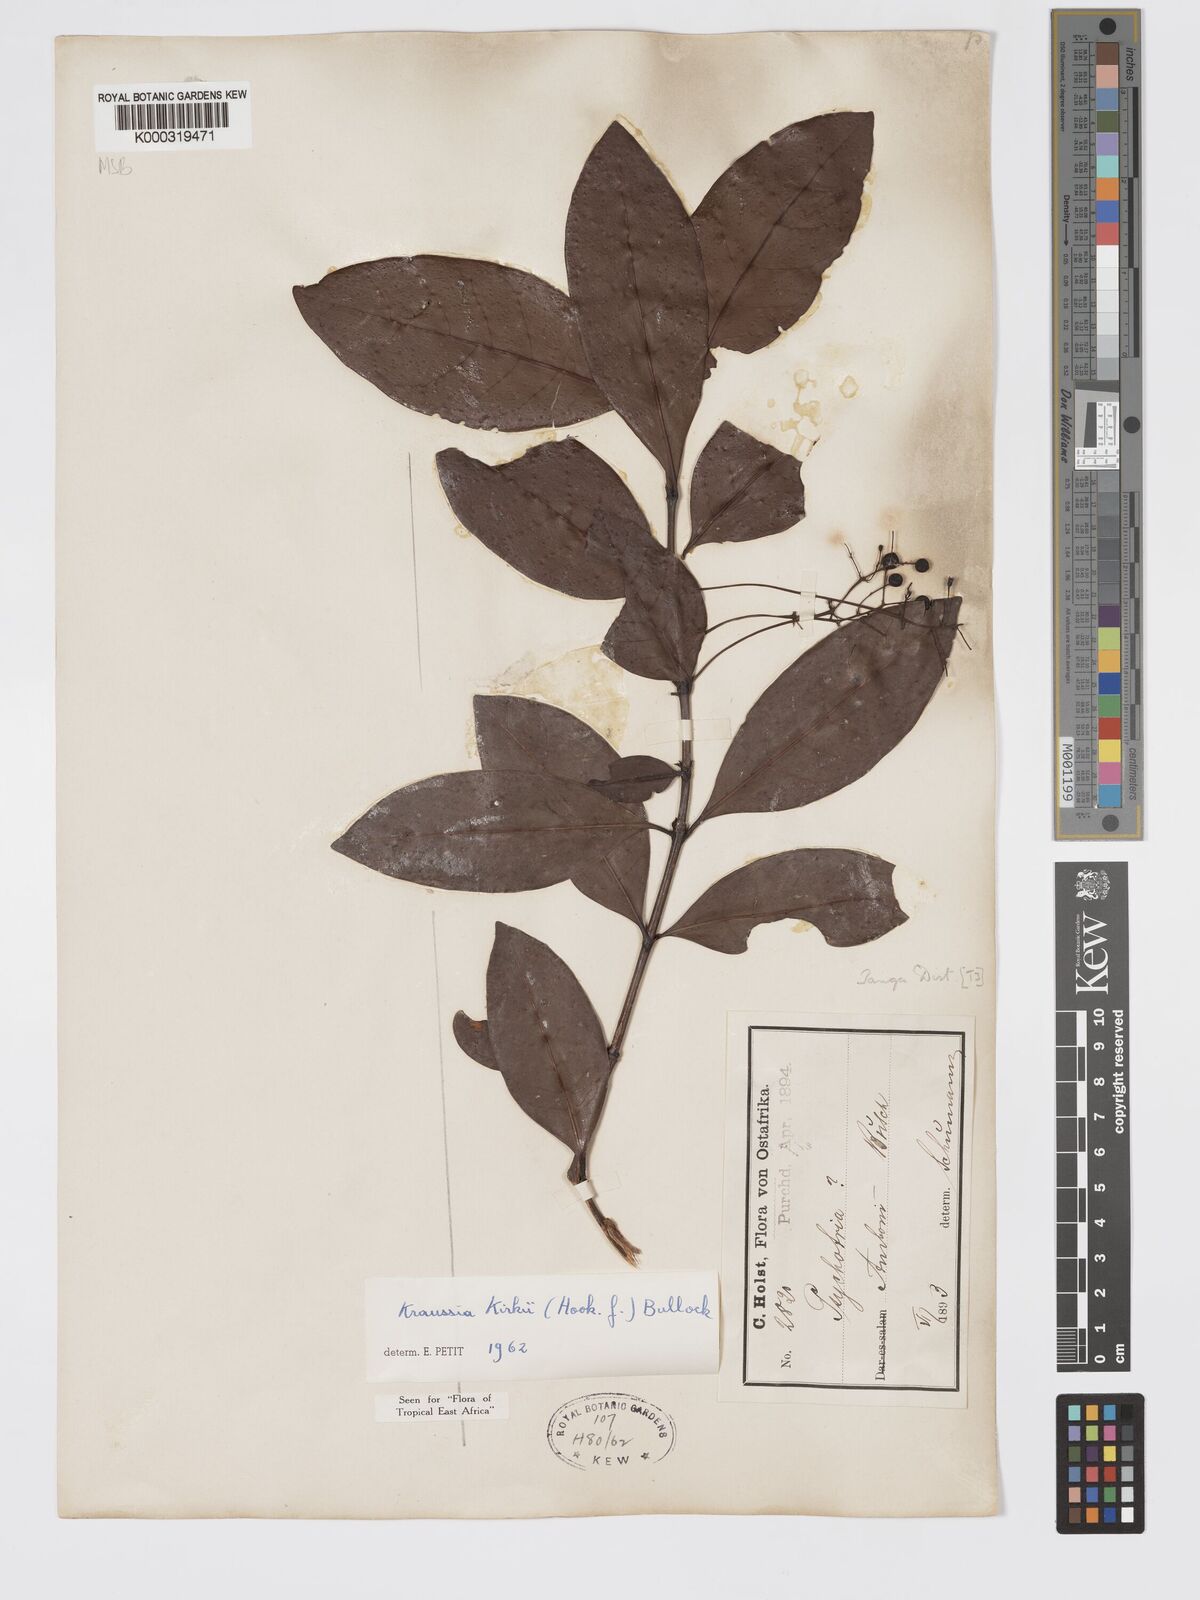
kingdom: Plantae
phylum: Tracheophyta
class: Magnoliopsida
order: Gentianales
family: Rubiaceae
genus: Kraussia
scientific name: Kraussia kirkii
